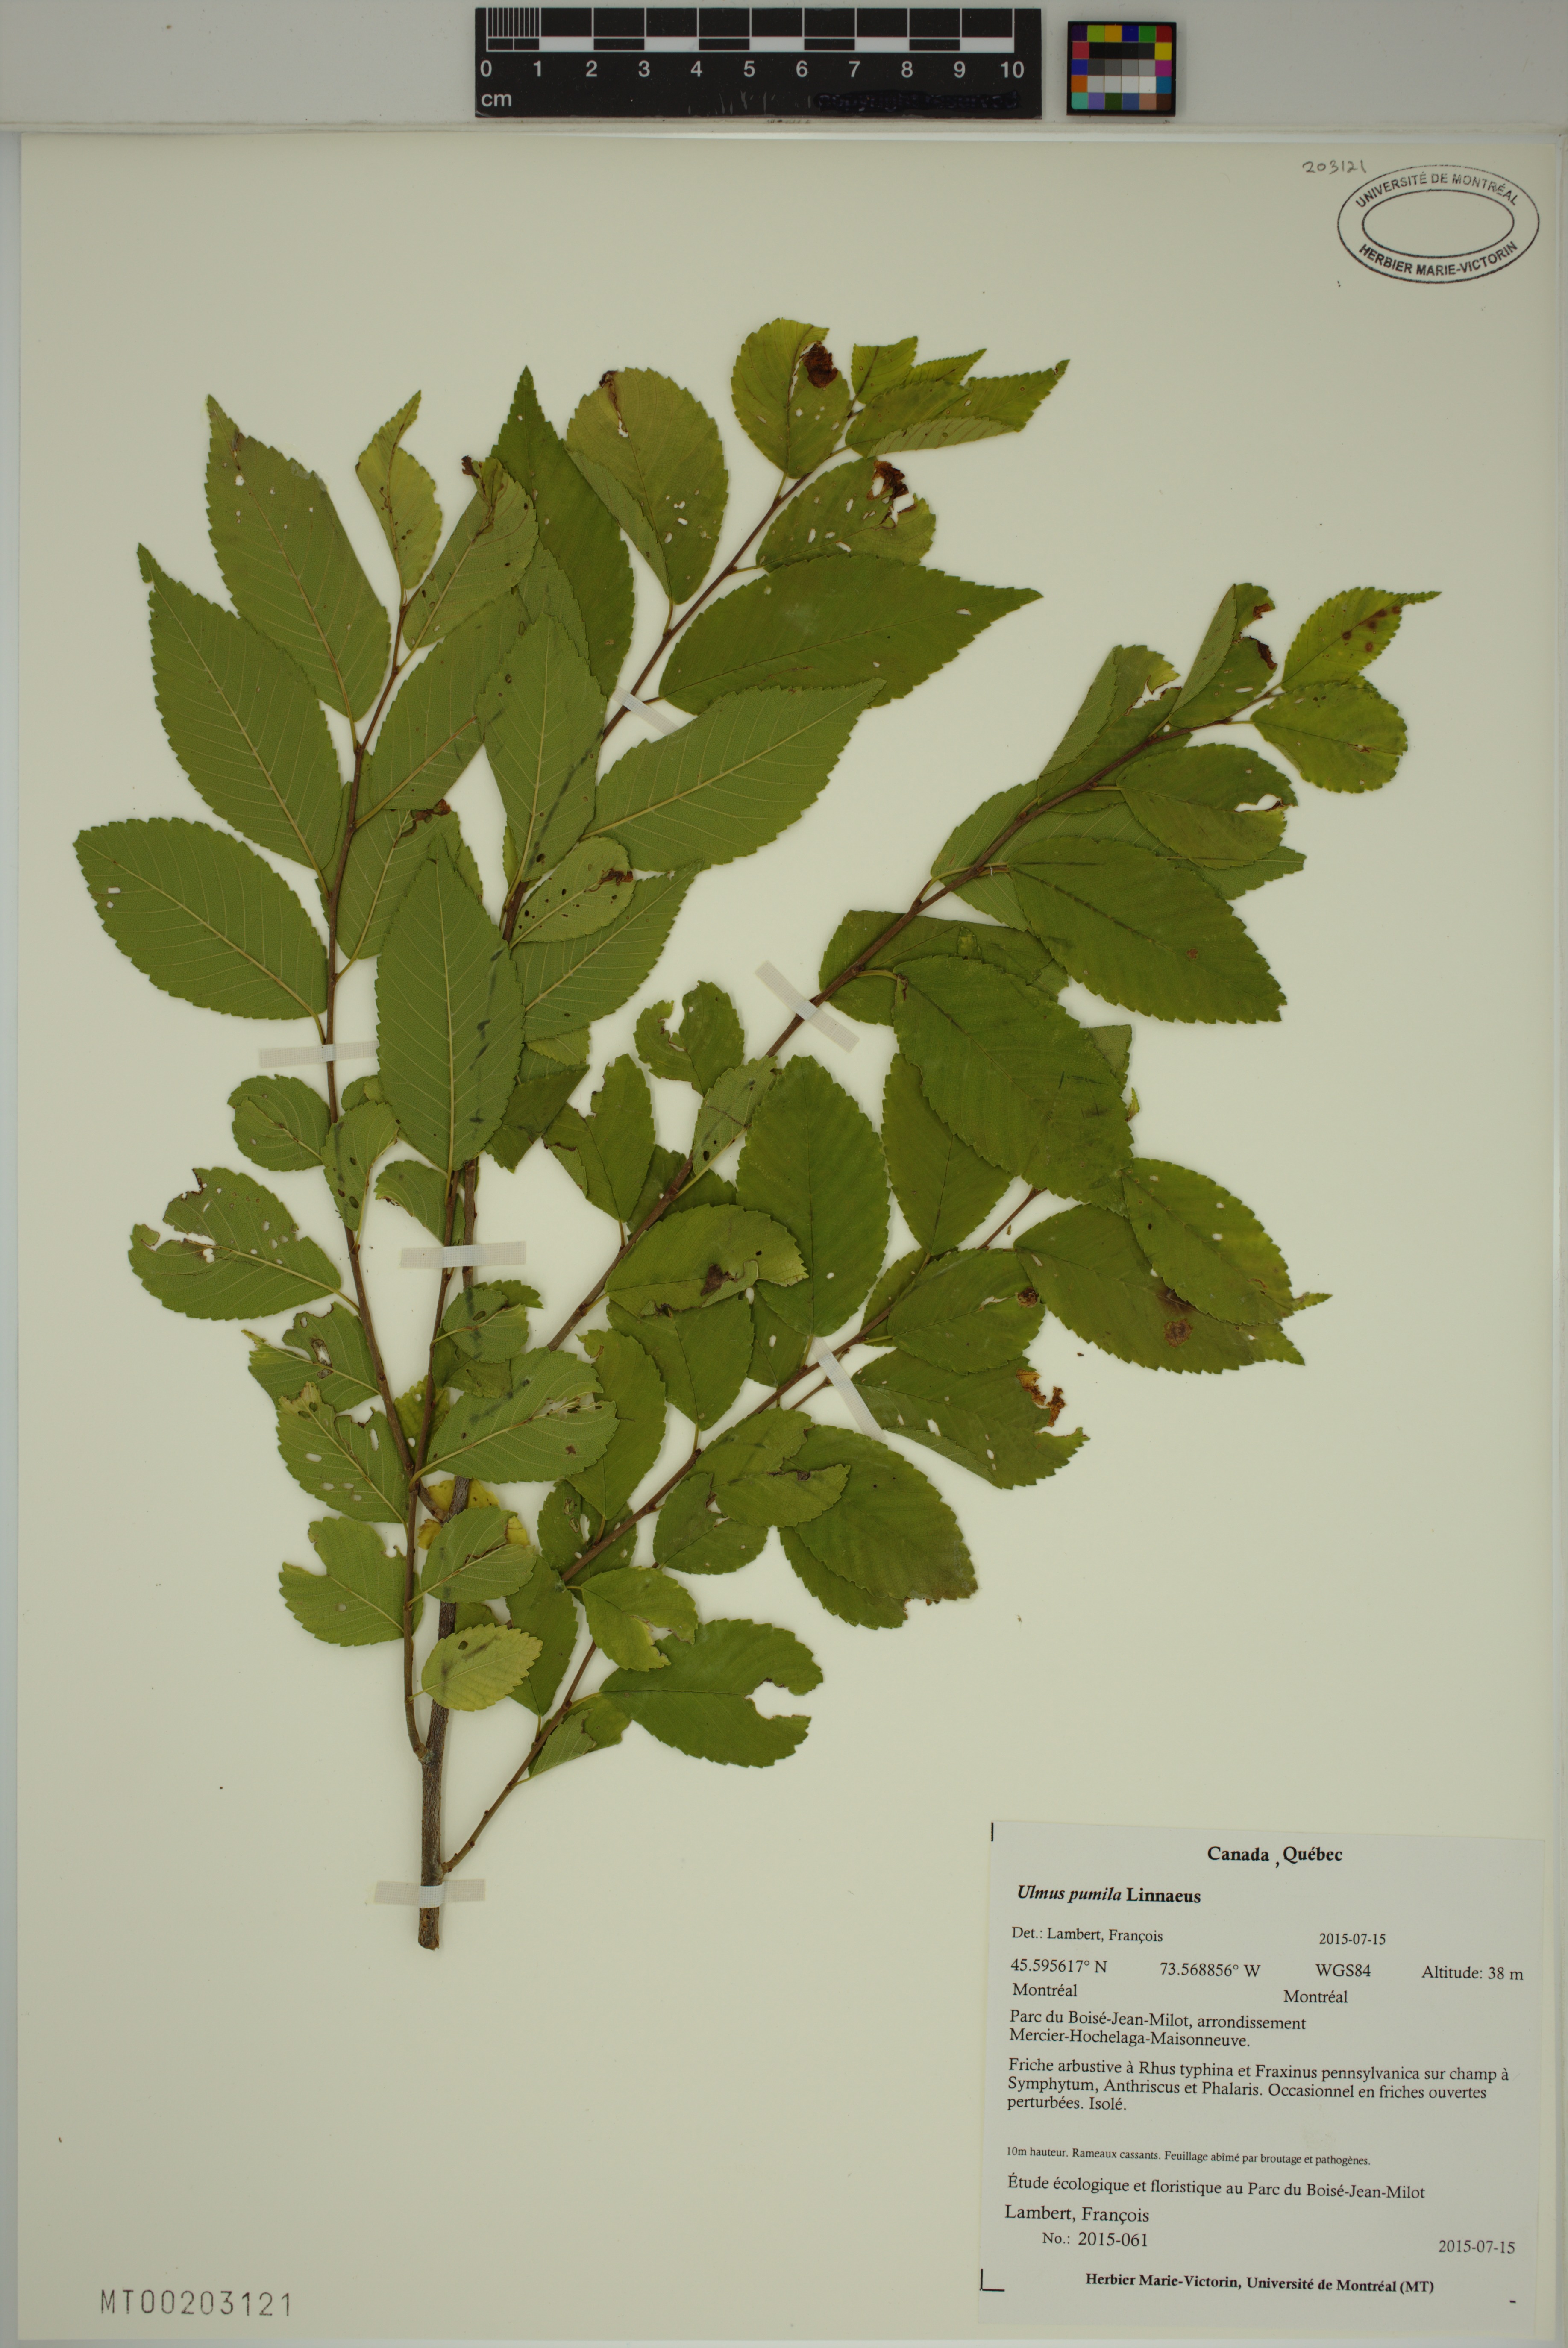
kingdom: Plantae
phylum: Tracheophyta
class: Magnoliopsida
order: Rosales
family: Ulmaceae
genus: Ulmus
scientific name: Ulmus pumila
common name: Siberian elm
